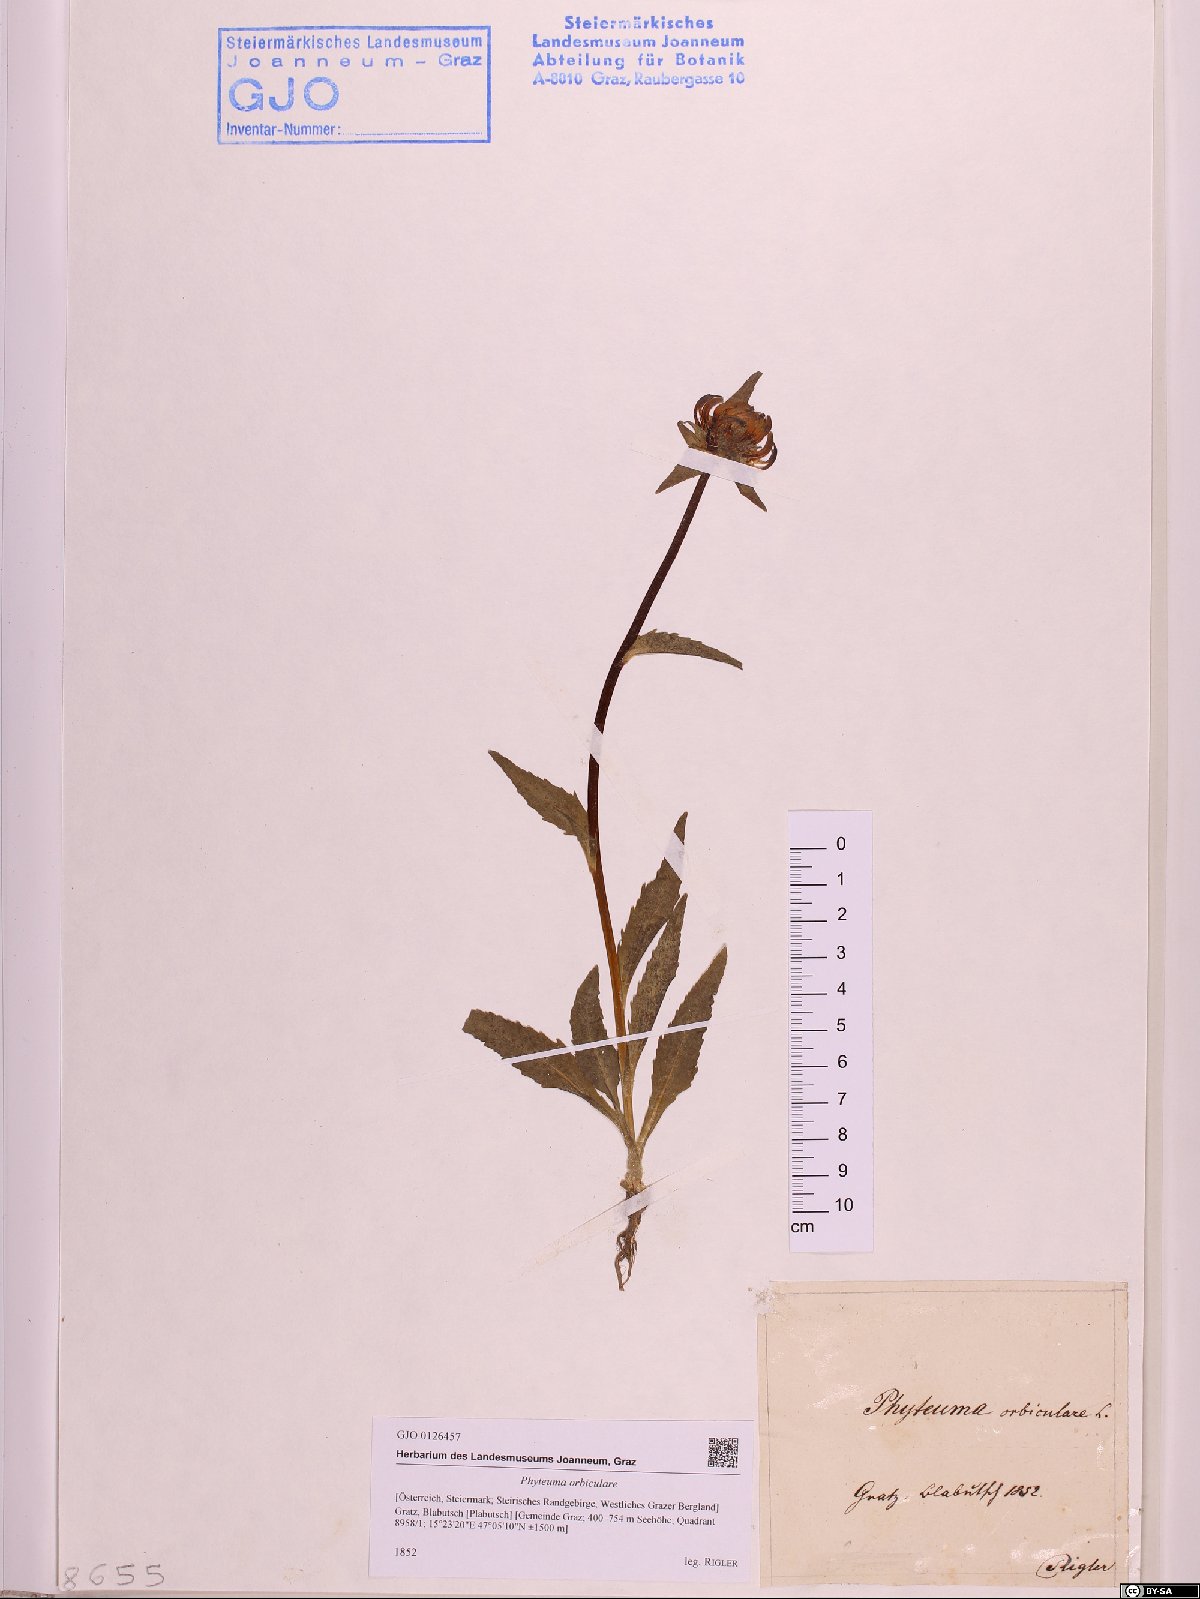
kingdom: Plantae
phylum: Tracheophyta
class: Magnoliopsida
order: Asterales
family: Campanulaceae
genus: Phyteuma
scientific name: Phyteuma orbiculare
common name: Round-headed rampion
